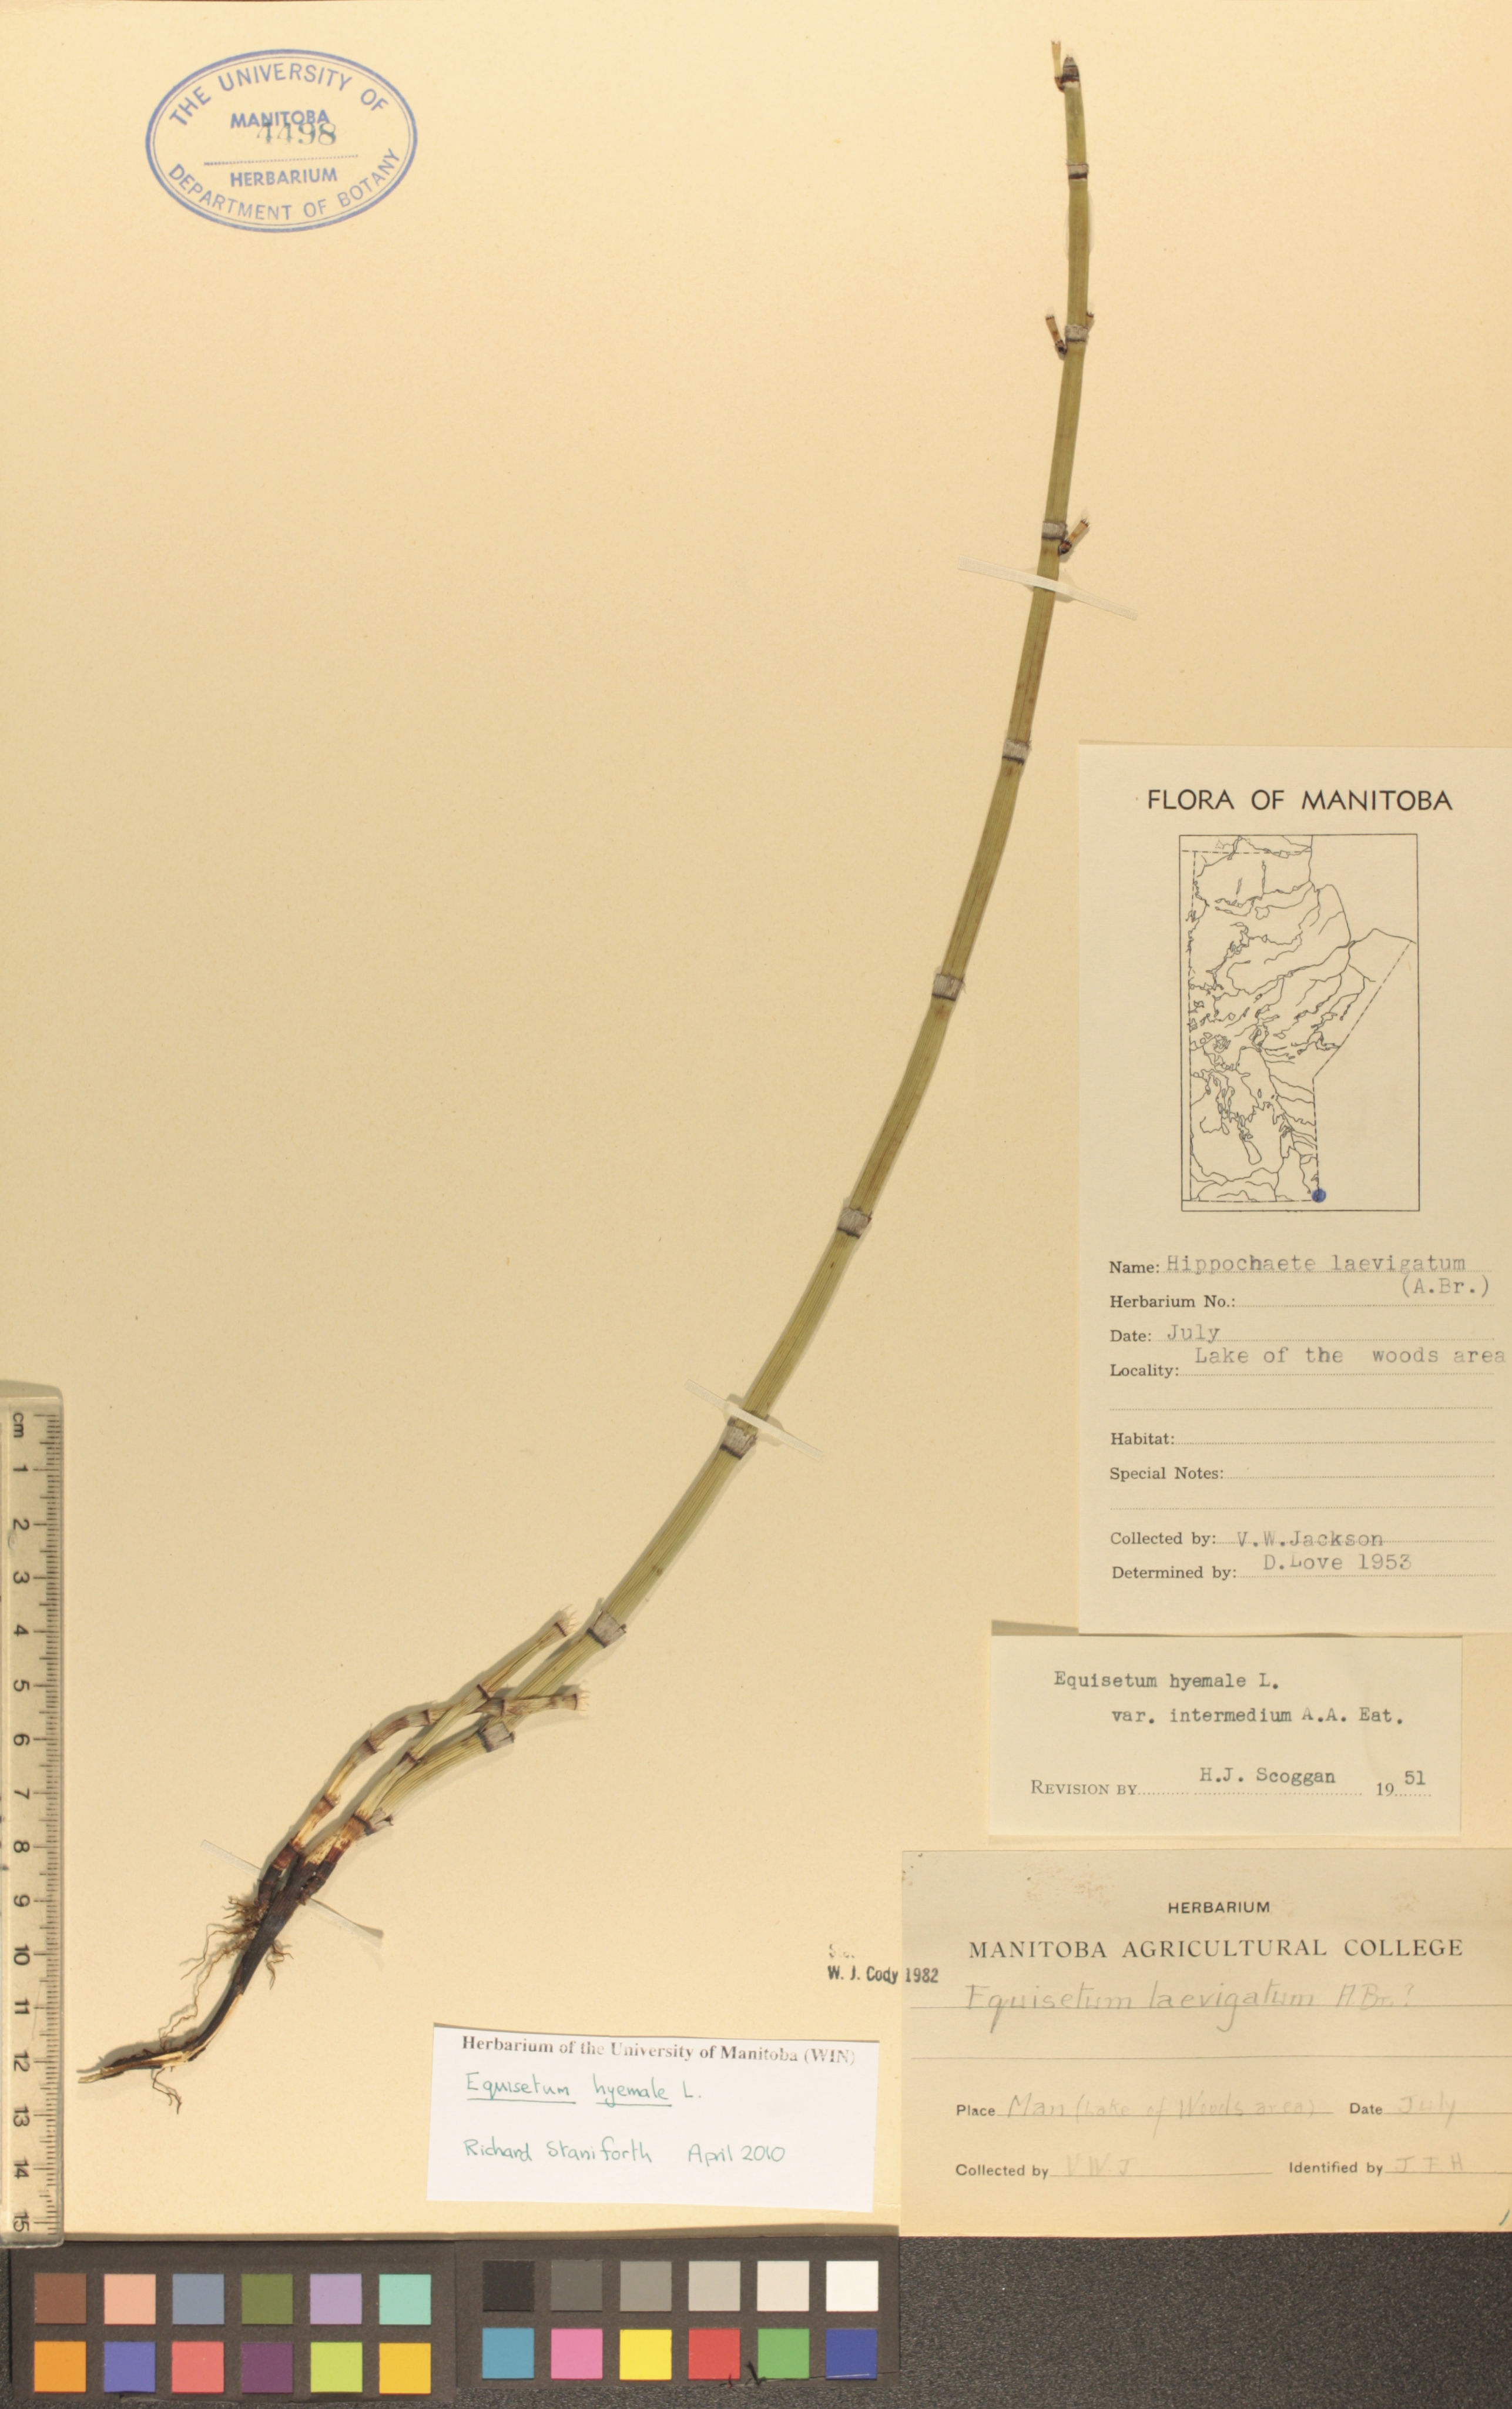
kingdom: Plantae
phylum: Tracheophyta
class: Polypodiopsida
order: Equisetales
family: Equisetaceae
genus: Equisetum
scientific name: Equisetum hyemale
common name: Rough horsetail
